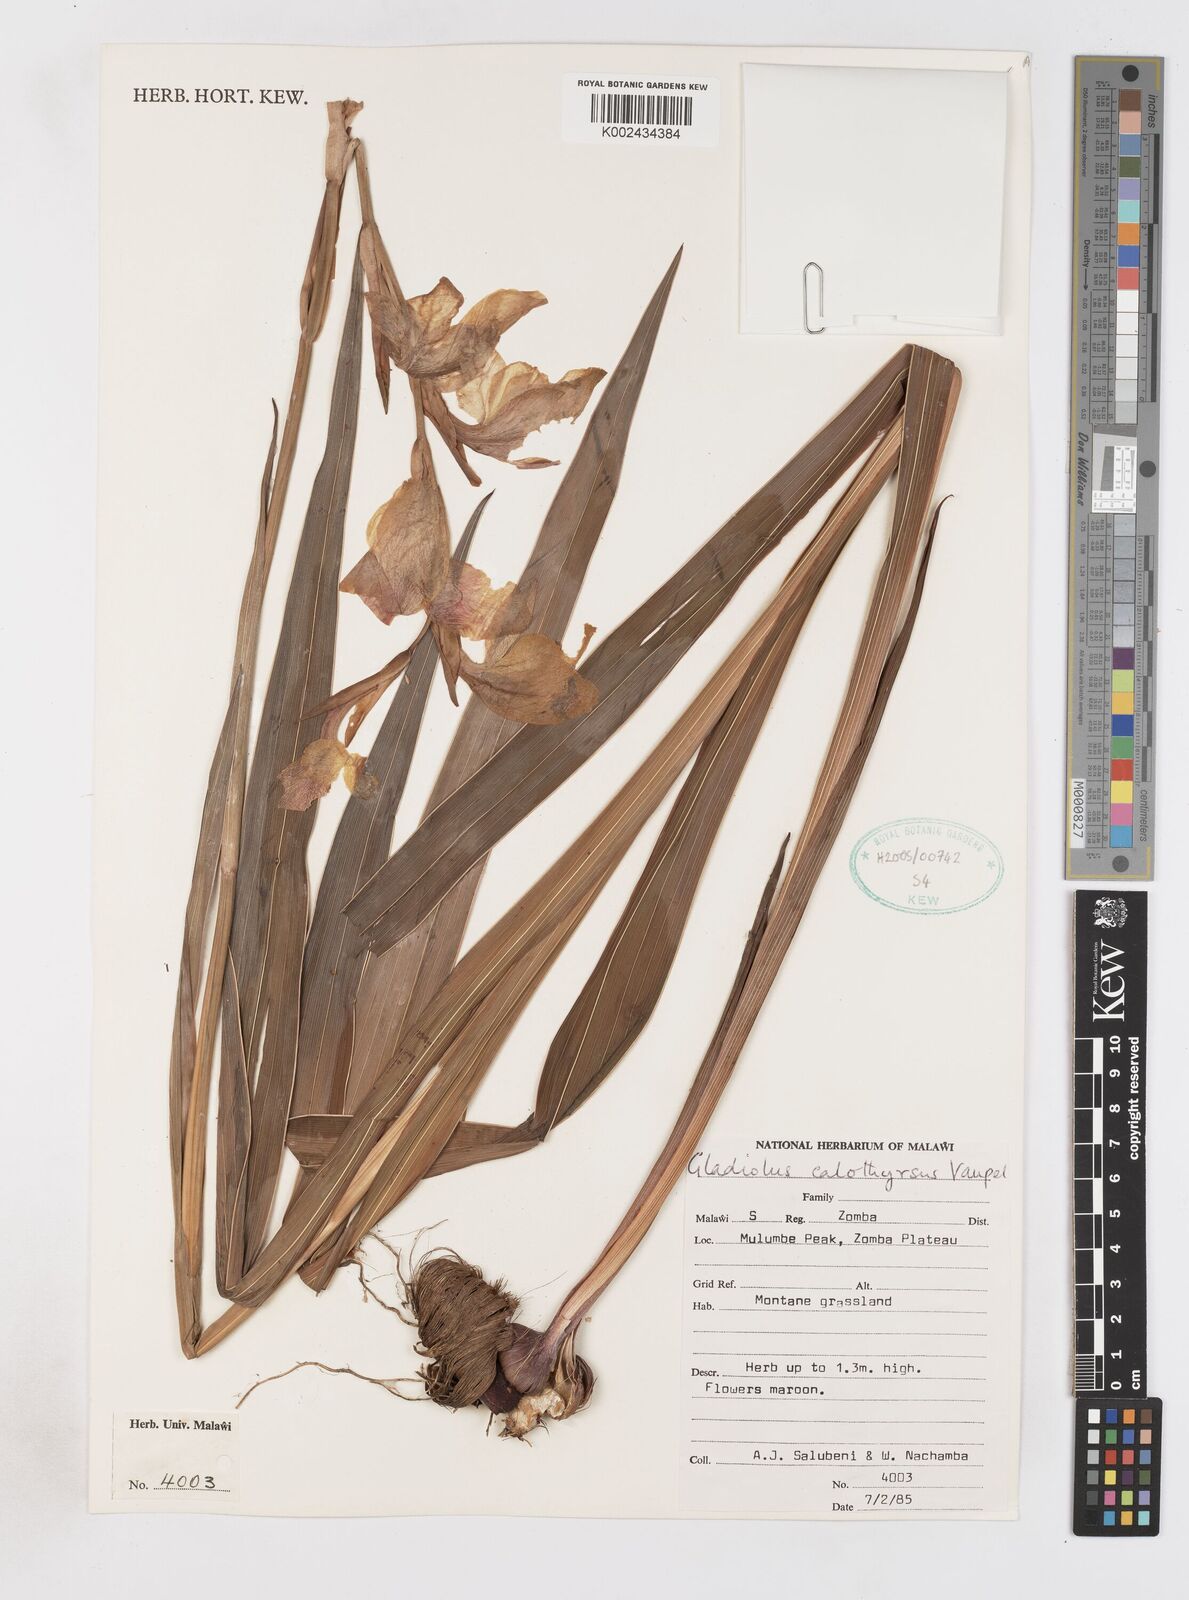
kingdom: Plantae
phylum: Tracheophyta
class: Liliopsida
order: Asparagales
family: Iridaceae
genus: Gladiolus
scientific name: Gladiolus dalenii
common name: Cornflag
